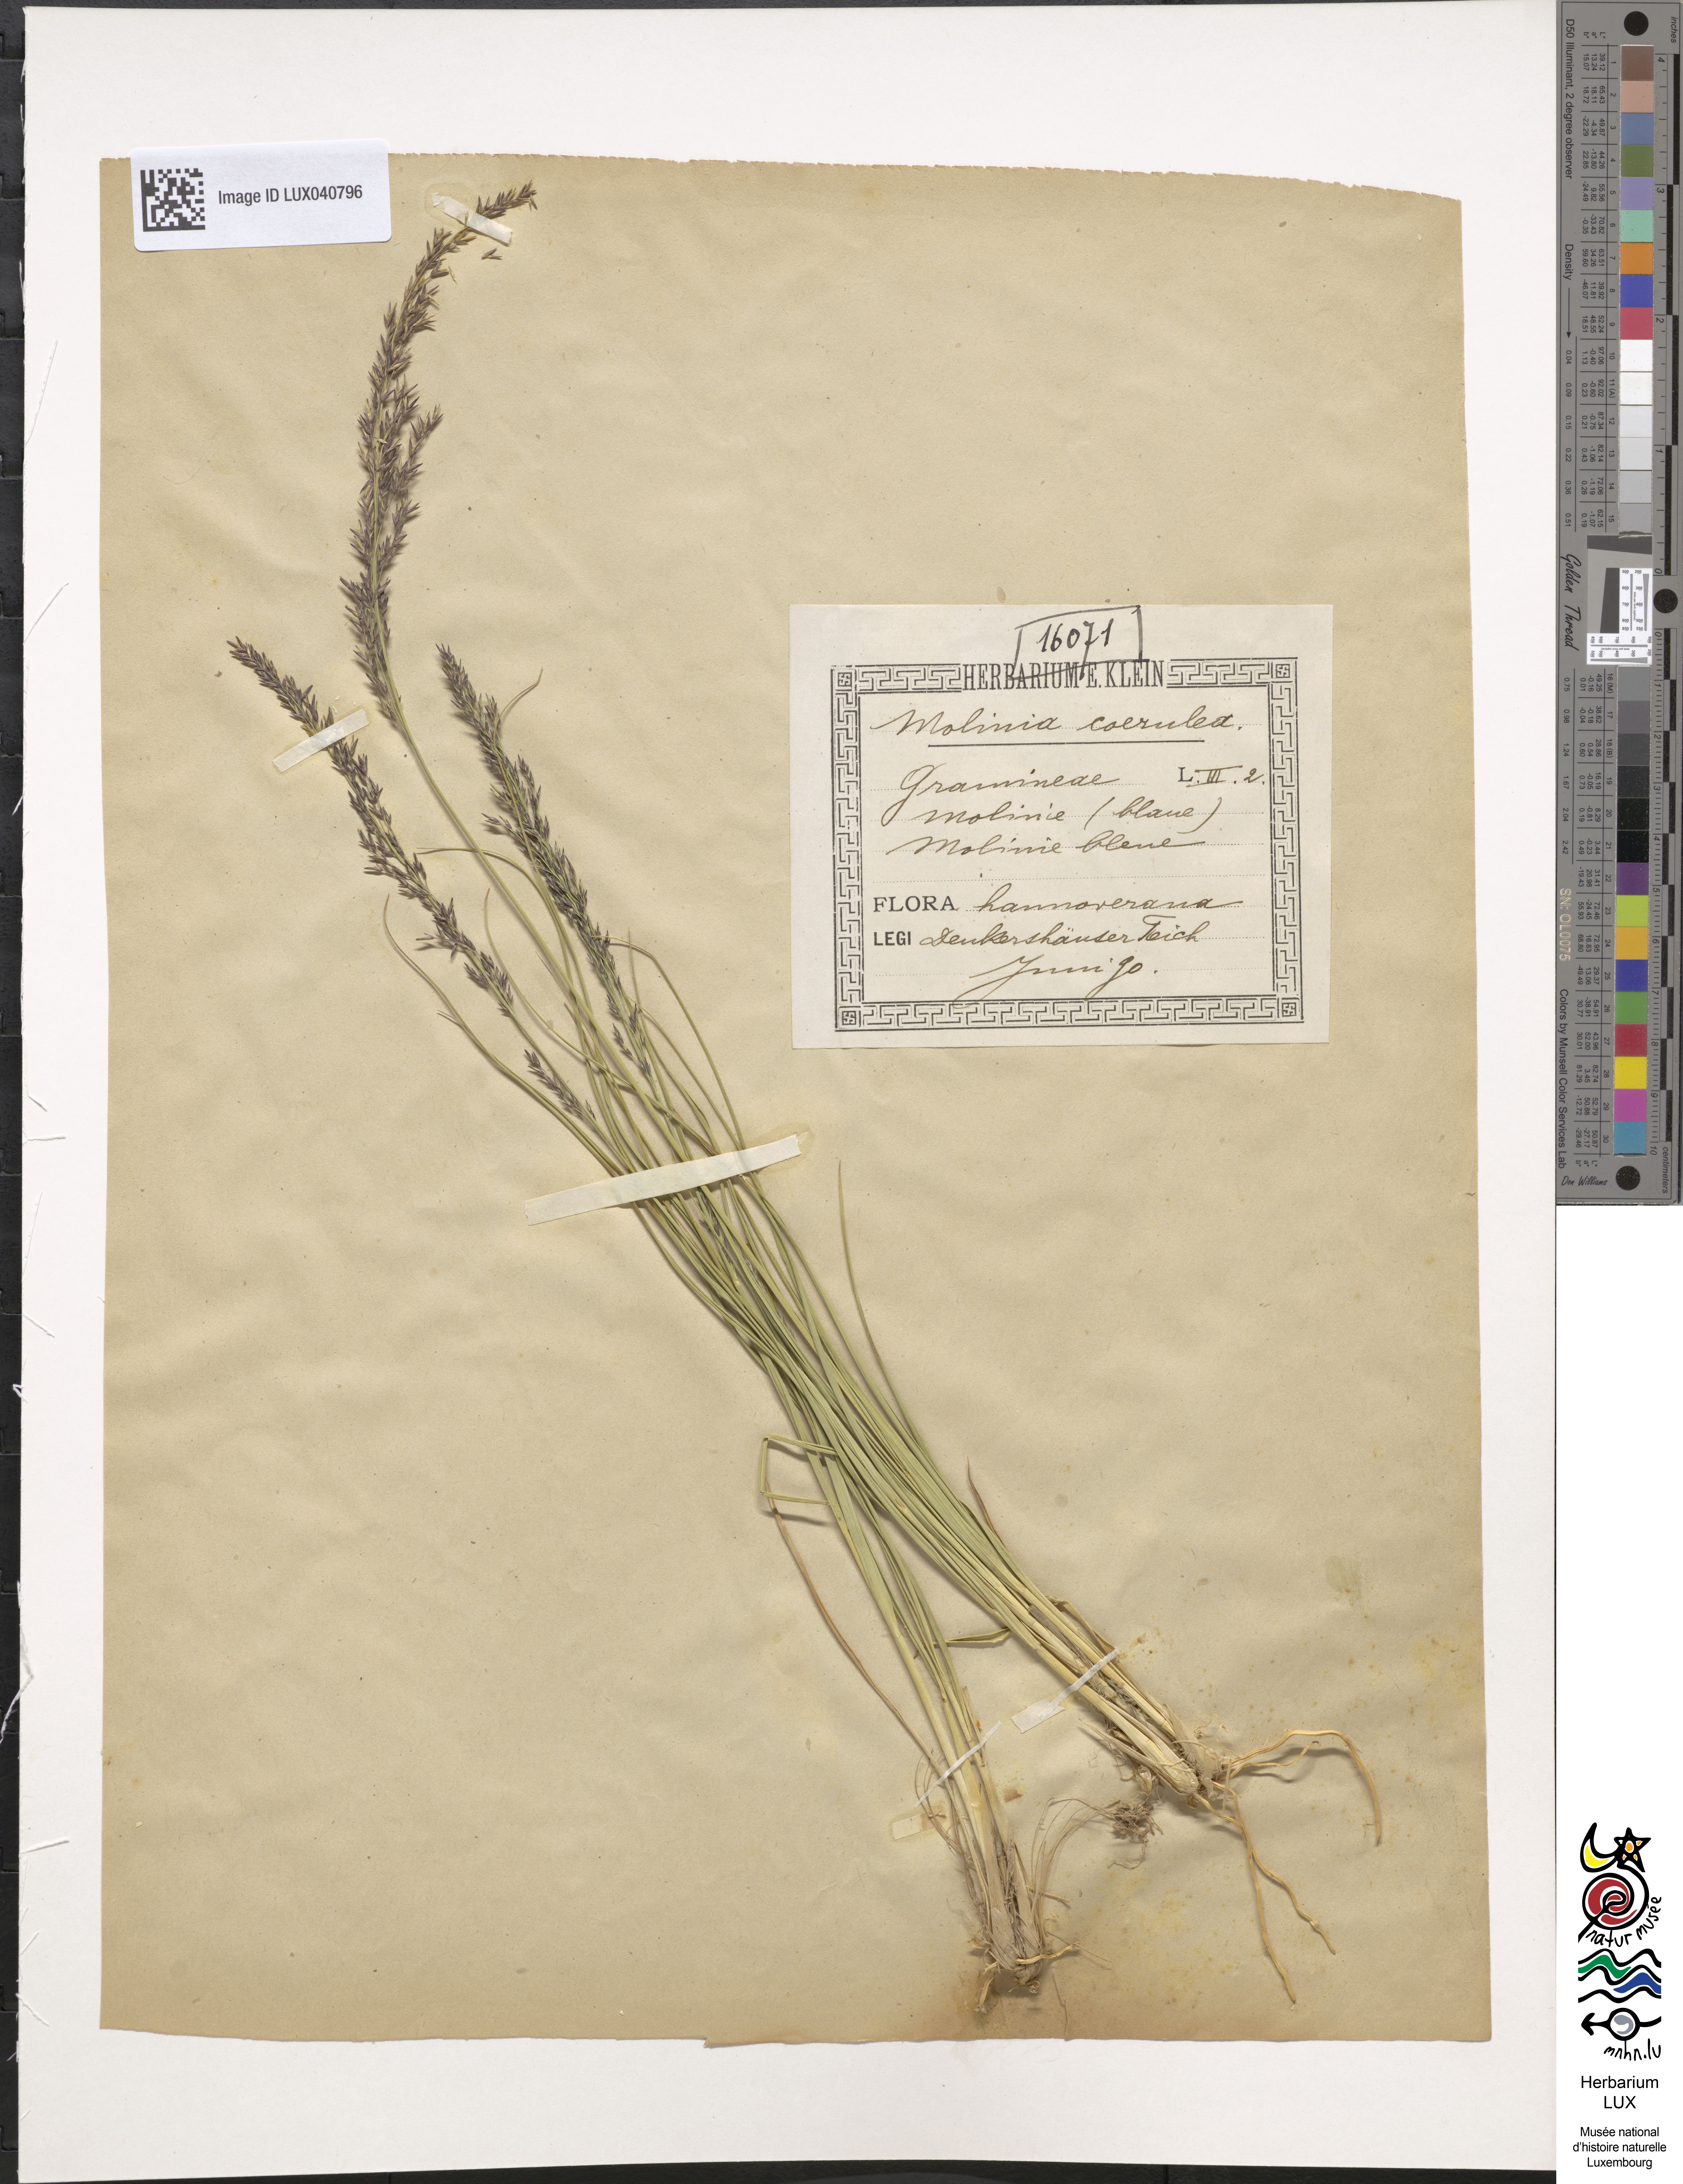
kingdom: Plantae
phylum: Tracheophyta
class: Liliopsida
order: Poales
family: Poaceae
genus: Molinia
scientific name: Molinia caerulea
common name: Purple moor-grass
